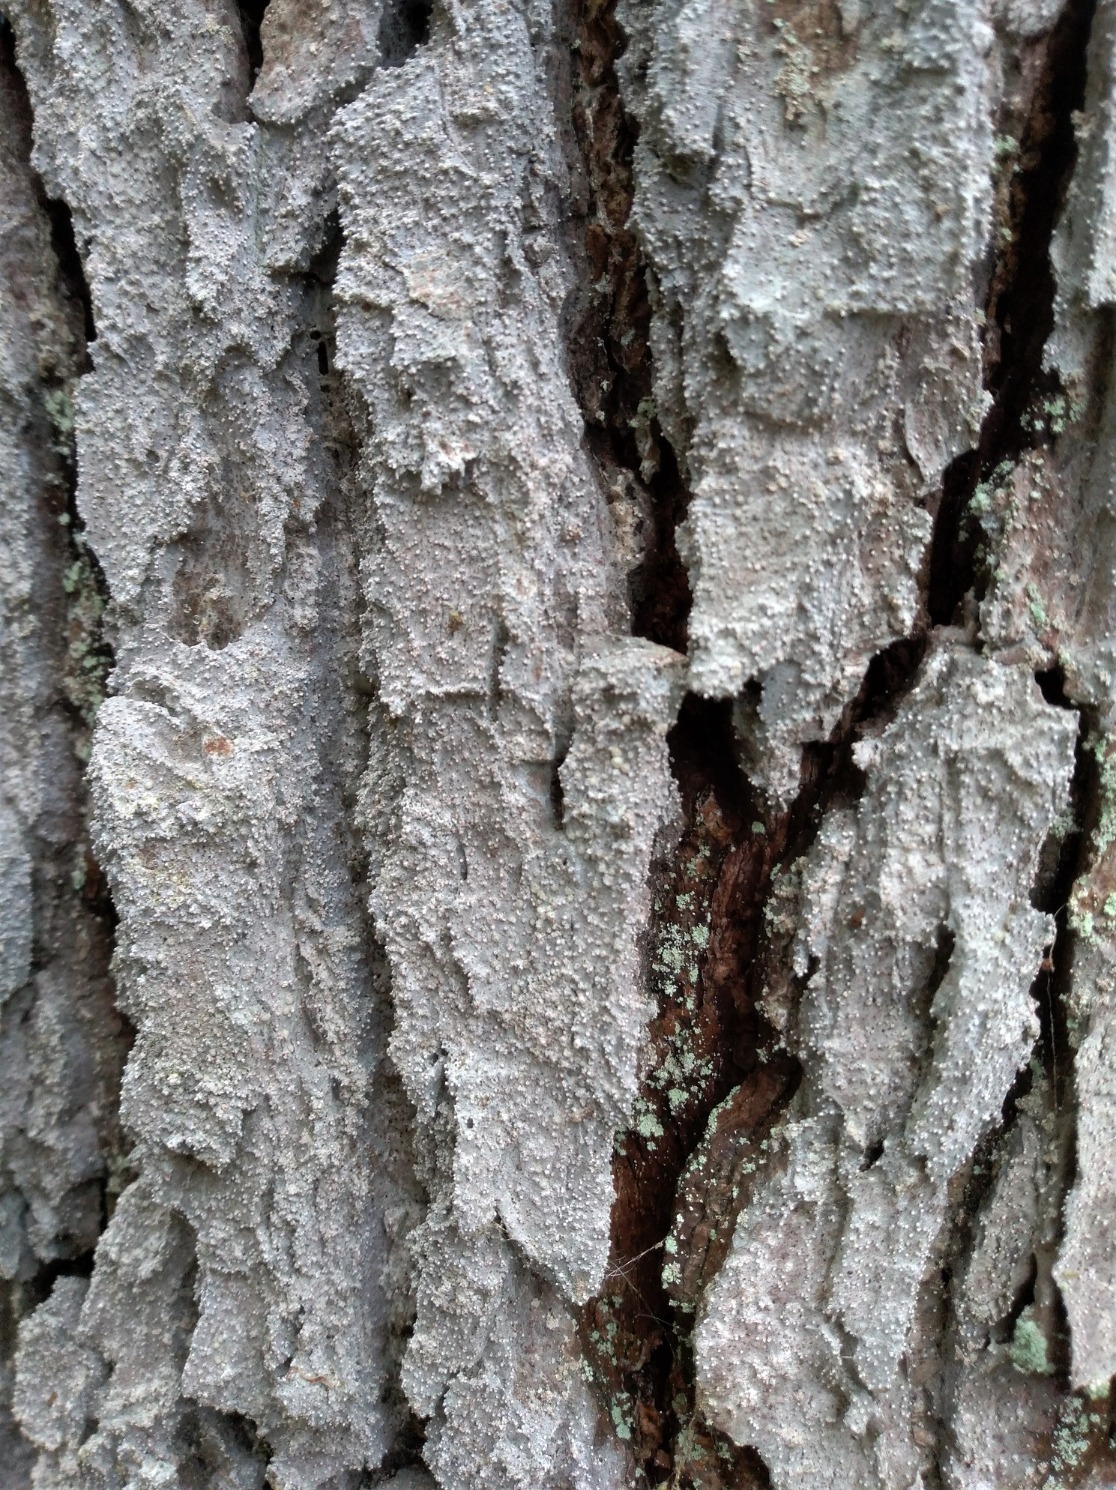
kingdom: Fungi
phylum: Ascomycota
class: Arthoniomycetes
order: Arthoniales
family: Roccellaceae
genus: Lecanactis
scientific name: Lecanactis abietina
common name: Grå dugskivelav
